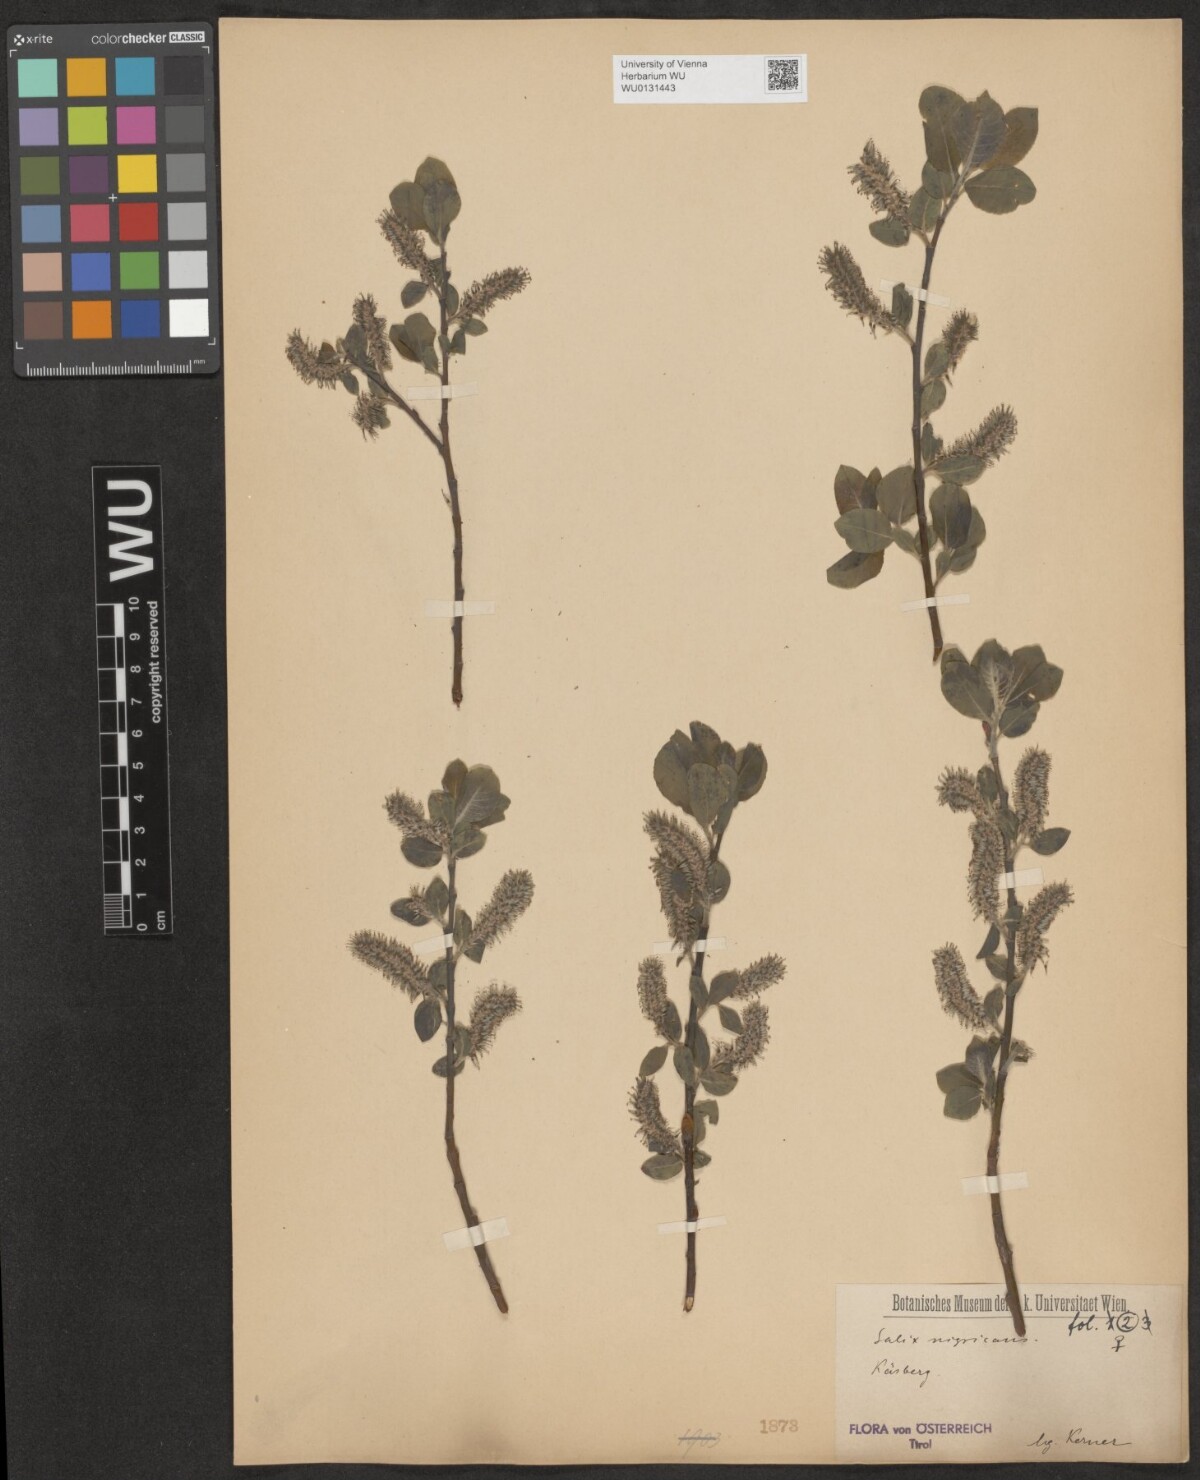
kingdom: Plantae
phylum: Tracheophyta
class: Magnoliopsida
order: Malpighiales
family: Salicaceae
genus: Salix
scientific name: Salix myrsinifolia
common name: Dark-leaved willow
